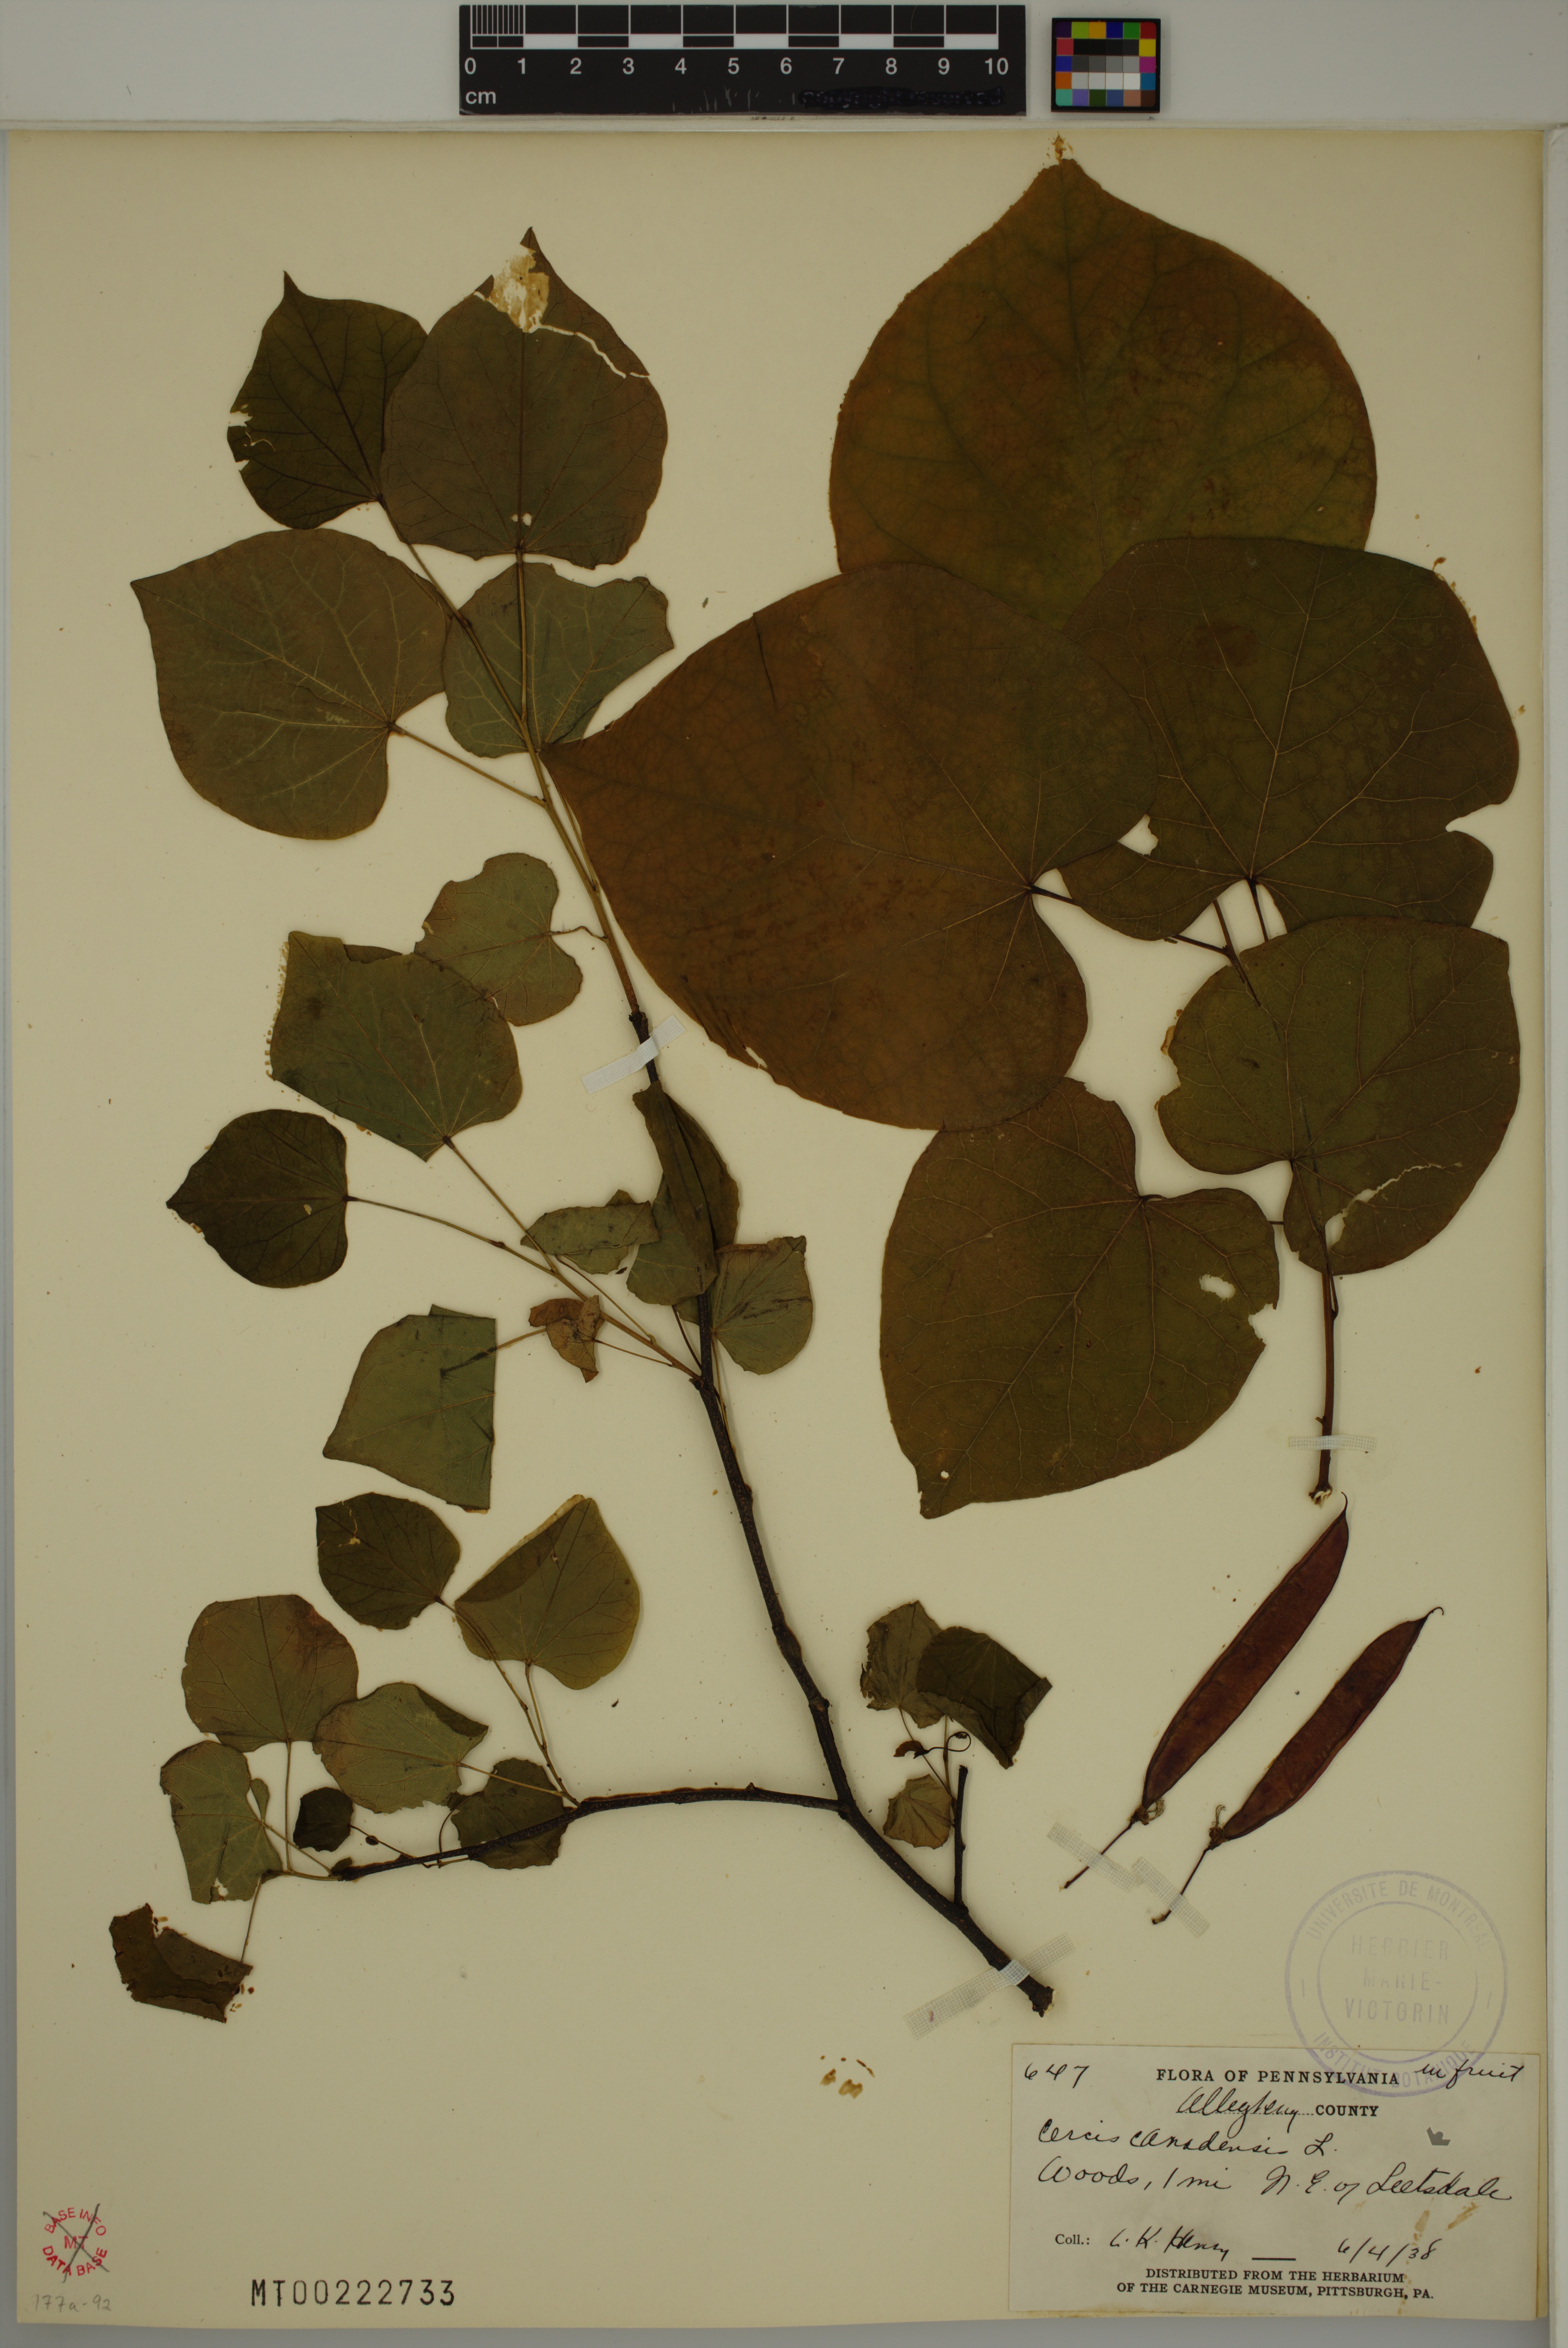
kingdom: Plantae
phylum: Tracheophyta
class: Magnoliopsida
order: Fabales
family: Fabaceae
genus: Cercis
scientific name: Cercis canadensis
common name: Eastern redbud
